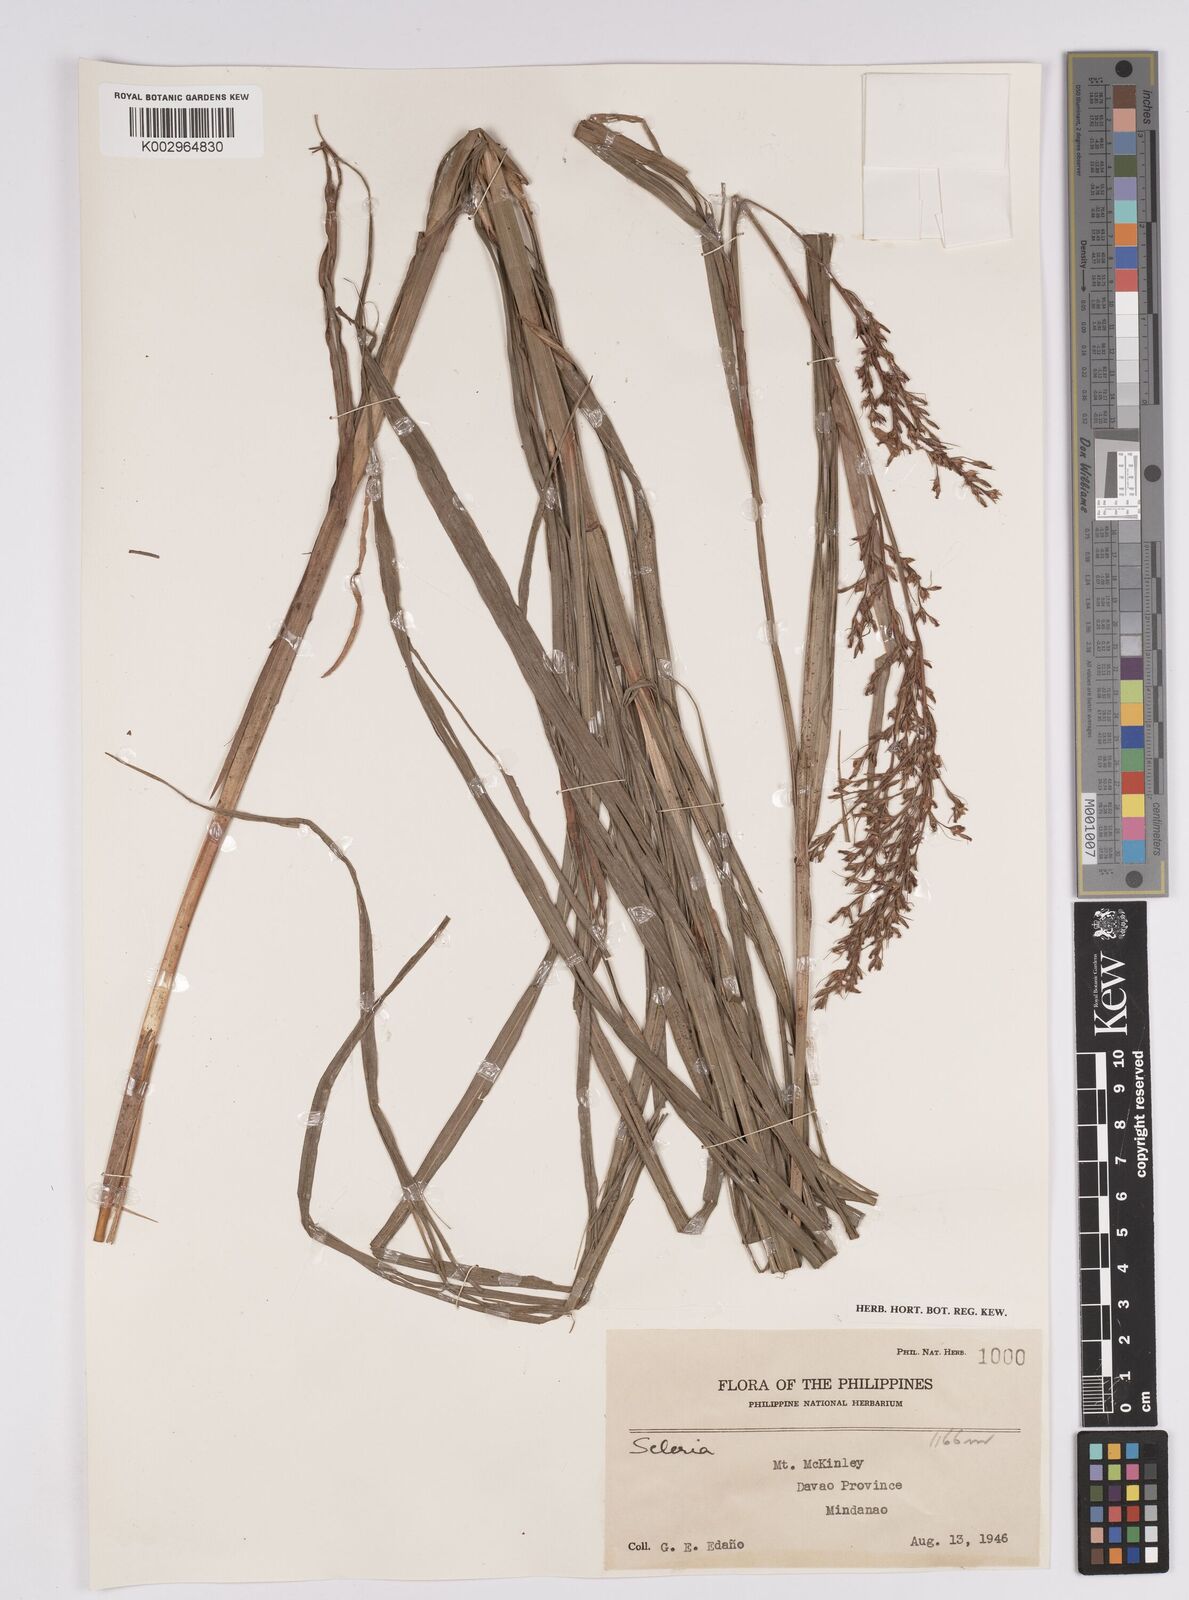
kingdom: Plantae
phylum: Tracheophyta
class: Liliopsida
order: Poales
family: Cyperaceae
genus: Scleria
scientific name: Scleria
